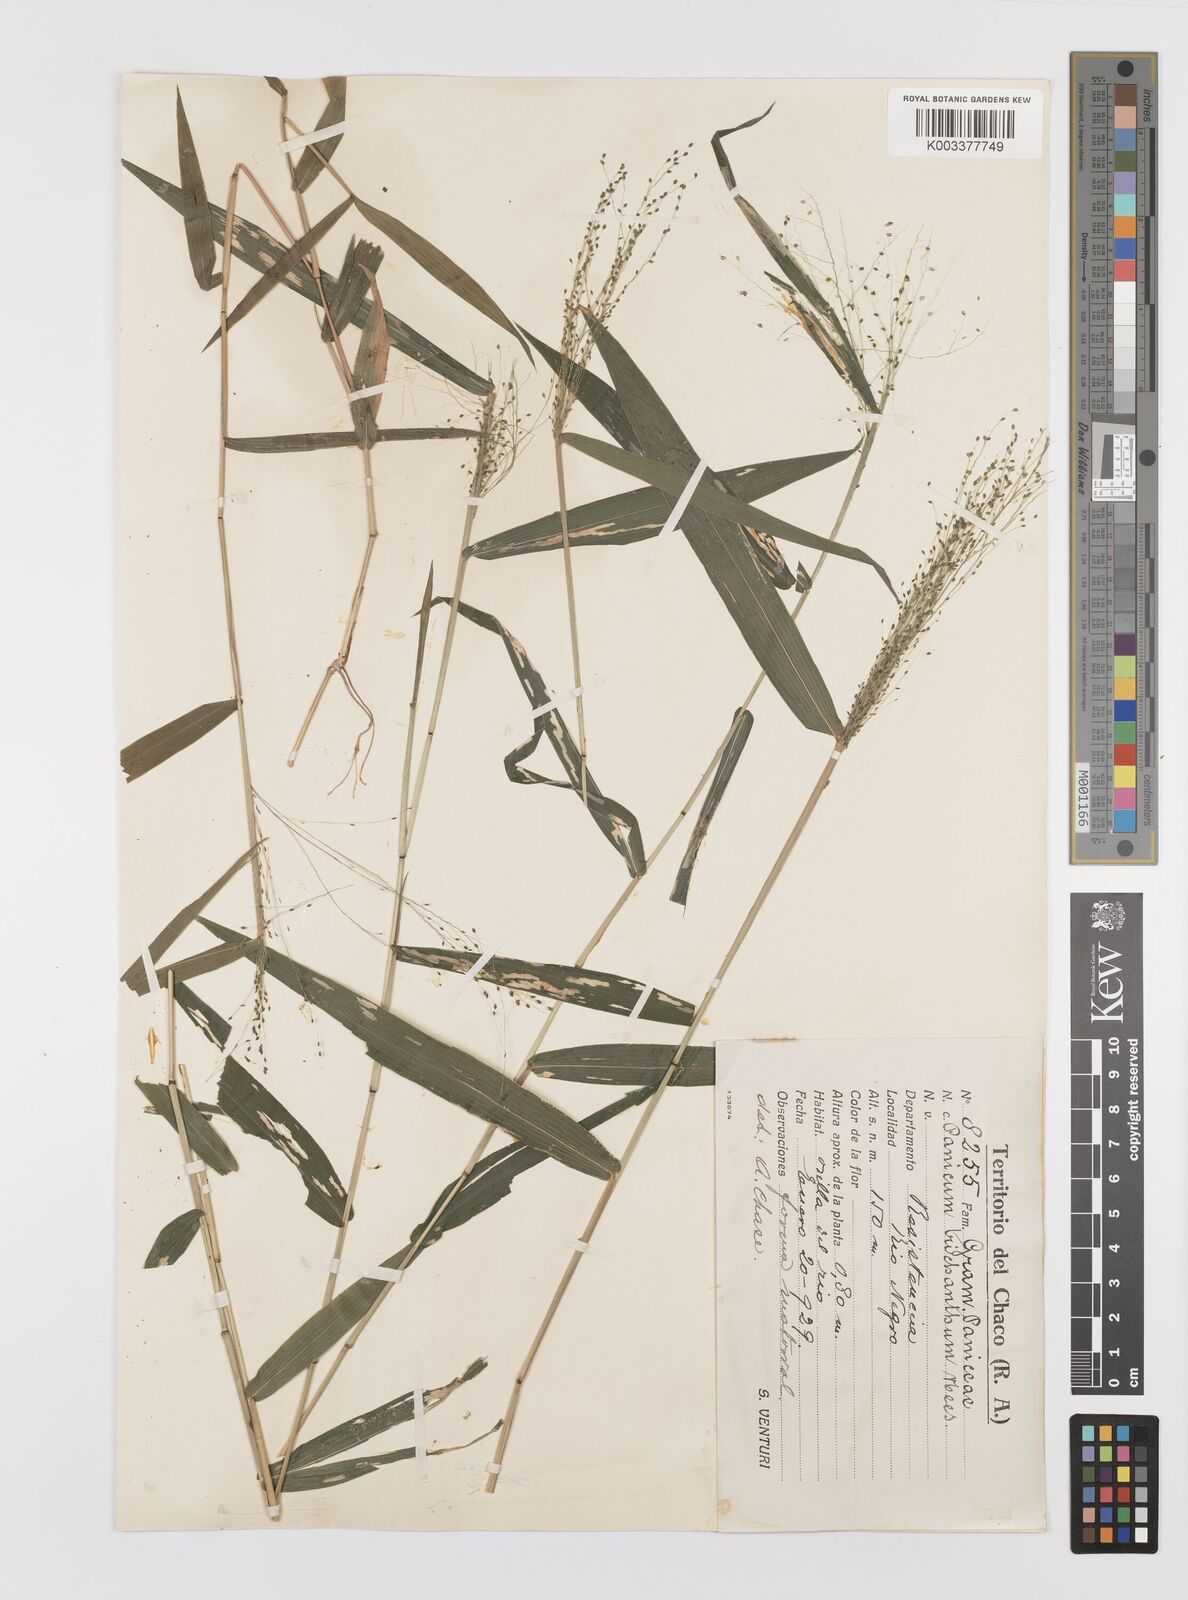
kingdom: Plantae
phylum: Tracheophyta
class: Liliopsida
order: Poales
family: Poaceae
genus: Panicum
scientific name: Panicum trichanthum
